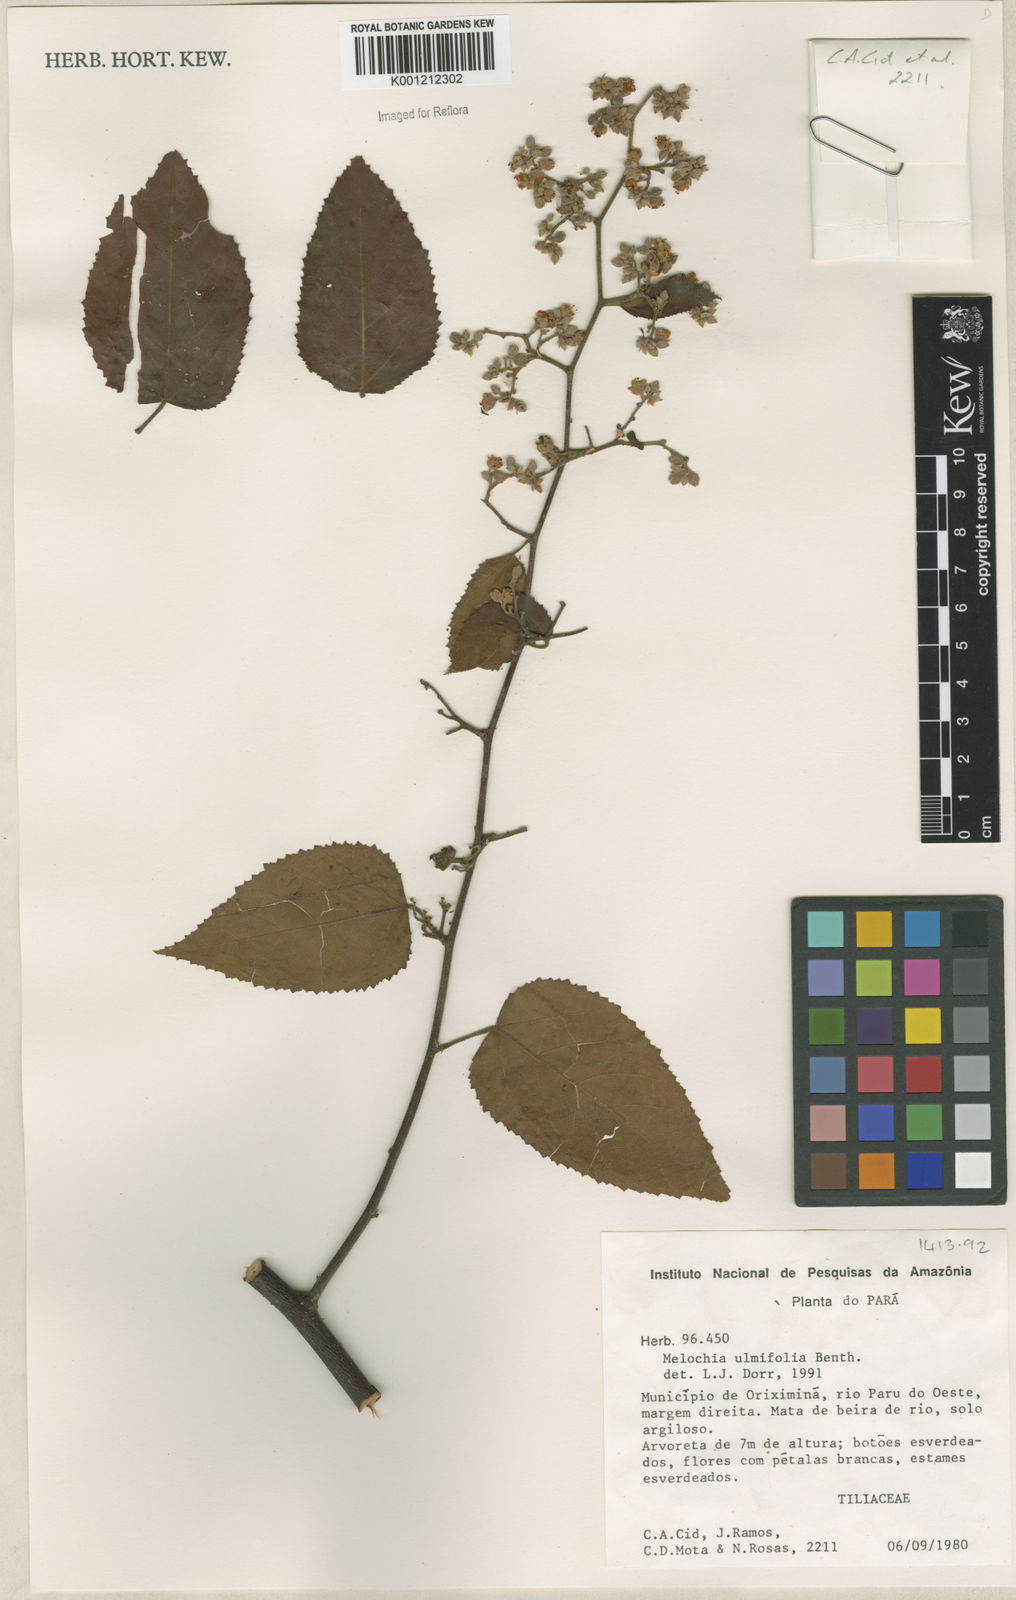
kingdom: Plantae
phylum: Tracheophyta
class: Magnoliopsida
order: Malvales
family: Malvaceae
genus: Melochia
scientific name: Melochia ulmifolia
